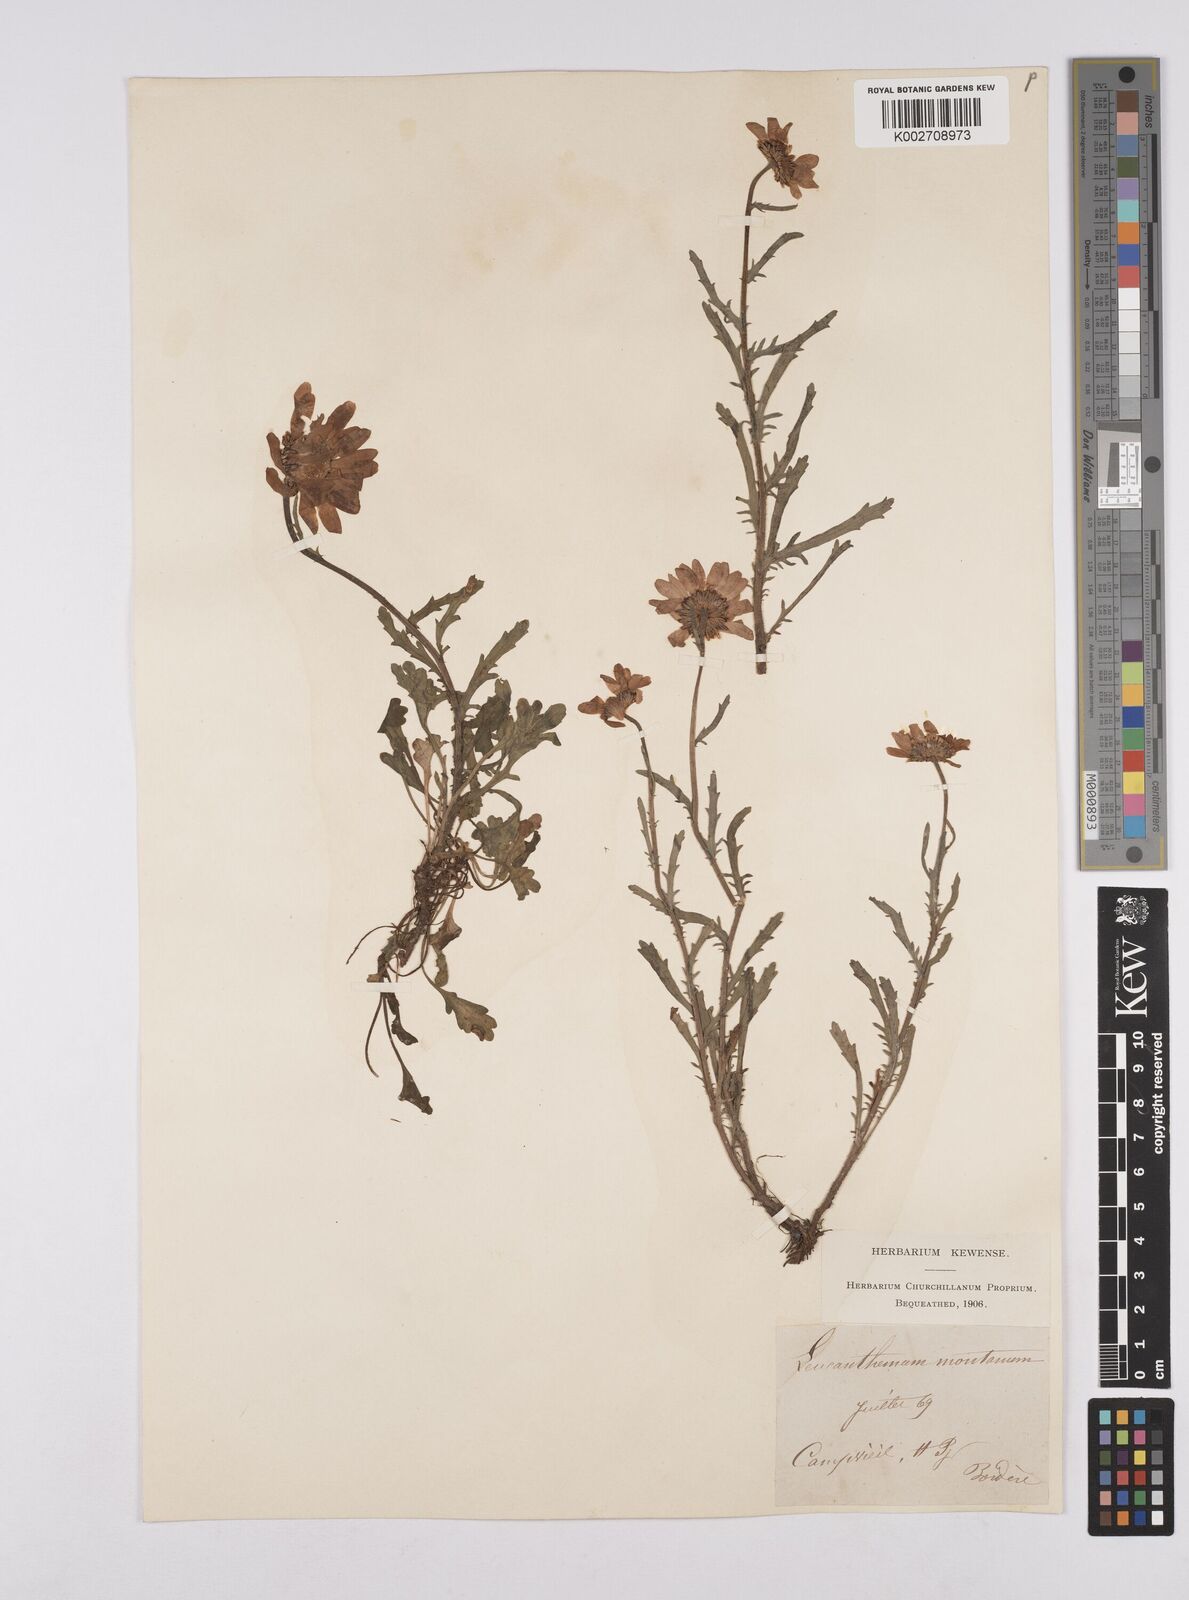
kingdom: Plantae
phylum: Tracheophyta
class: Magnoliopsida
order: Asterales
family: Asteraceae
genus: Leucanthemum
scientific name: Leucanthemum vulgare
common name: Oxeye daisy
